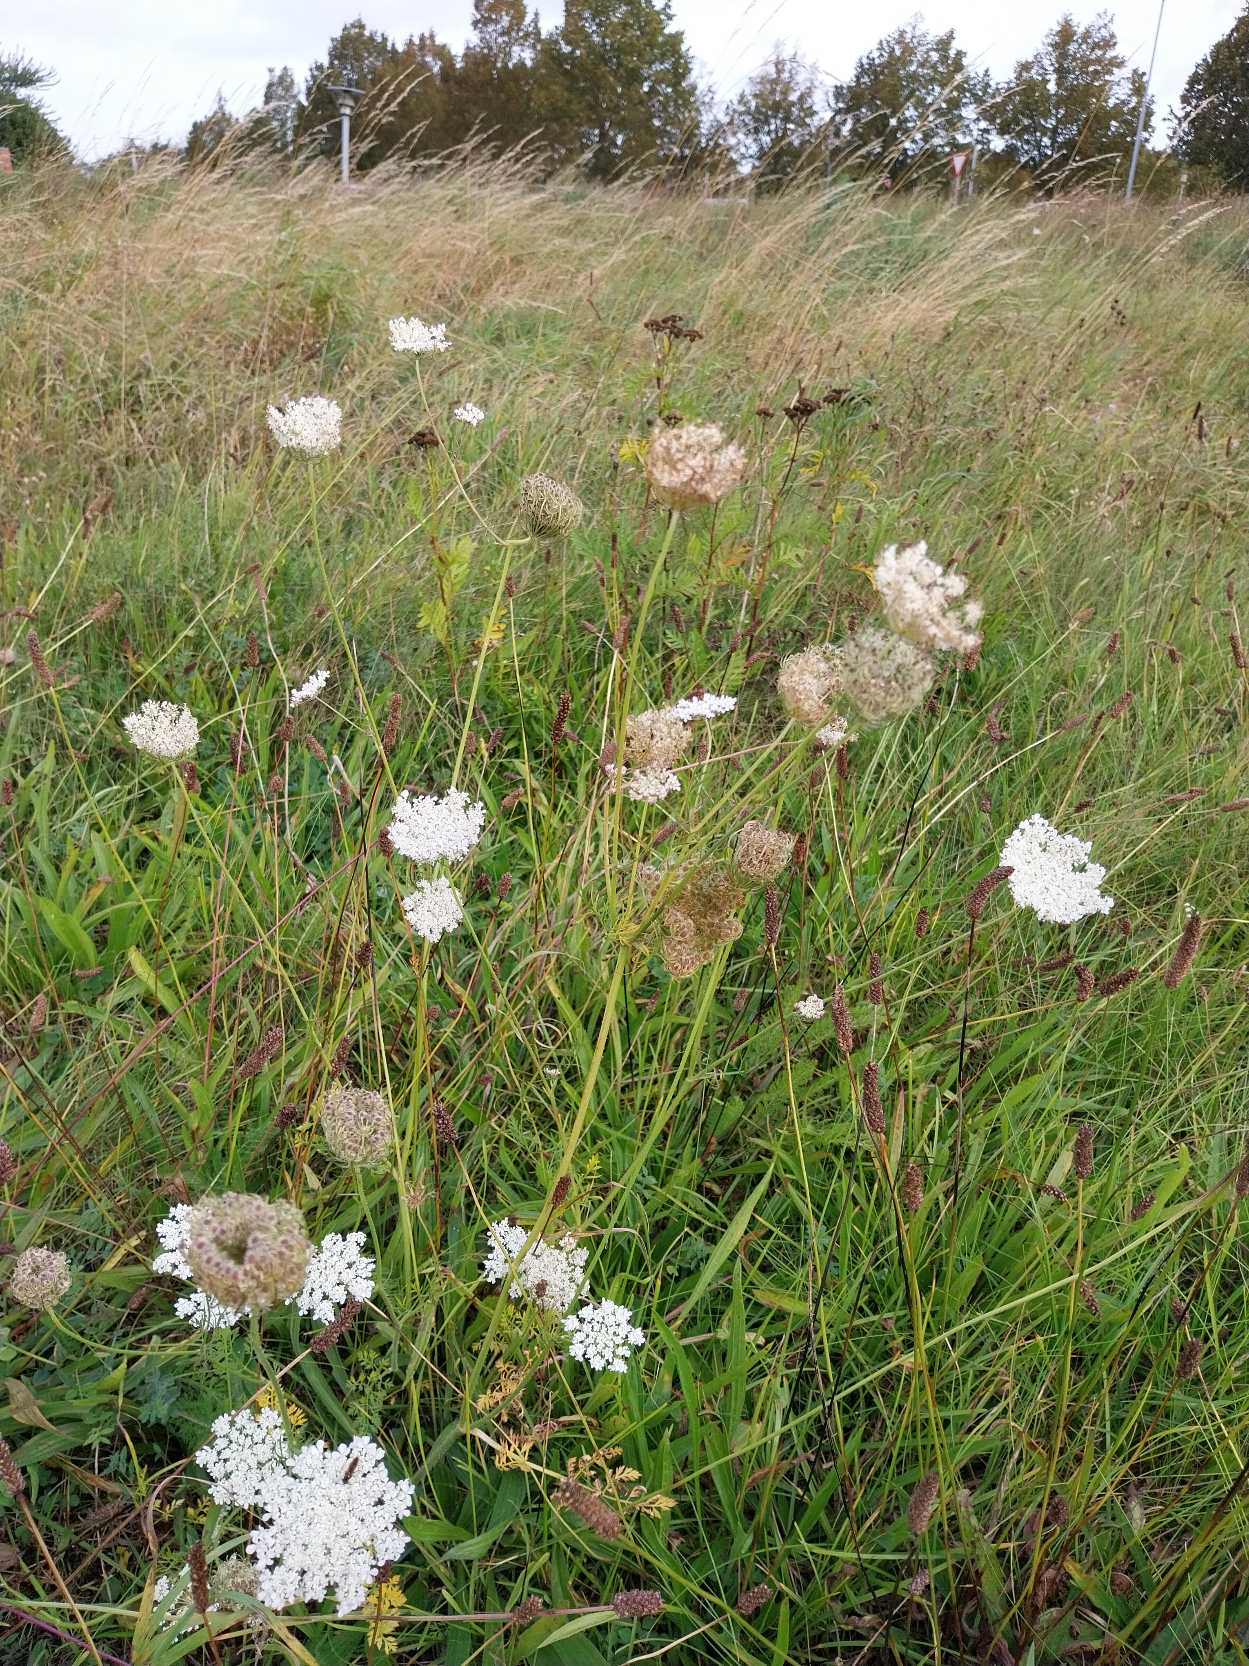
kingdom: Plantae
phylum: Tracheophyta
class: Magnoliopsida
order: Apiales
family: Apiaceae
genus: Daucus
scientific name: Daucus carota
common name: Gulerod
